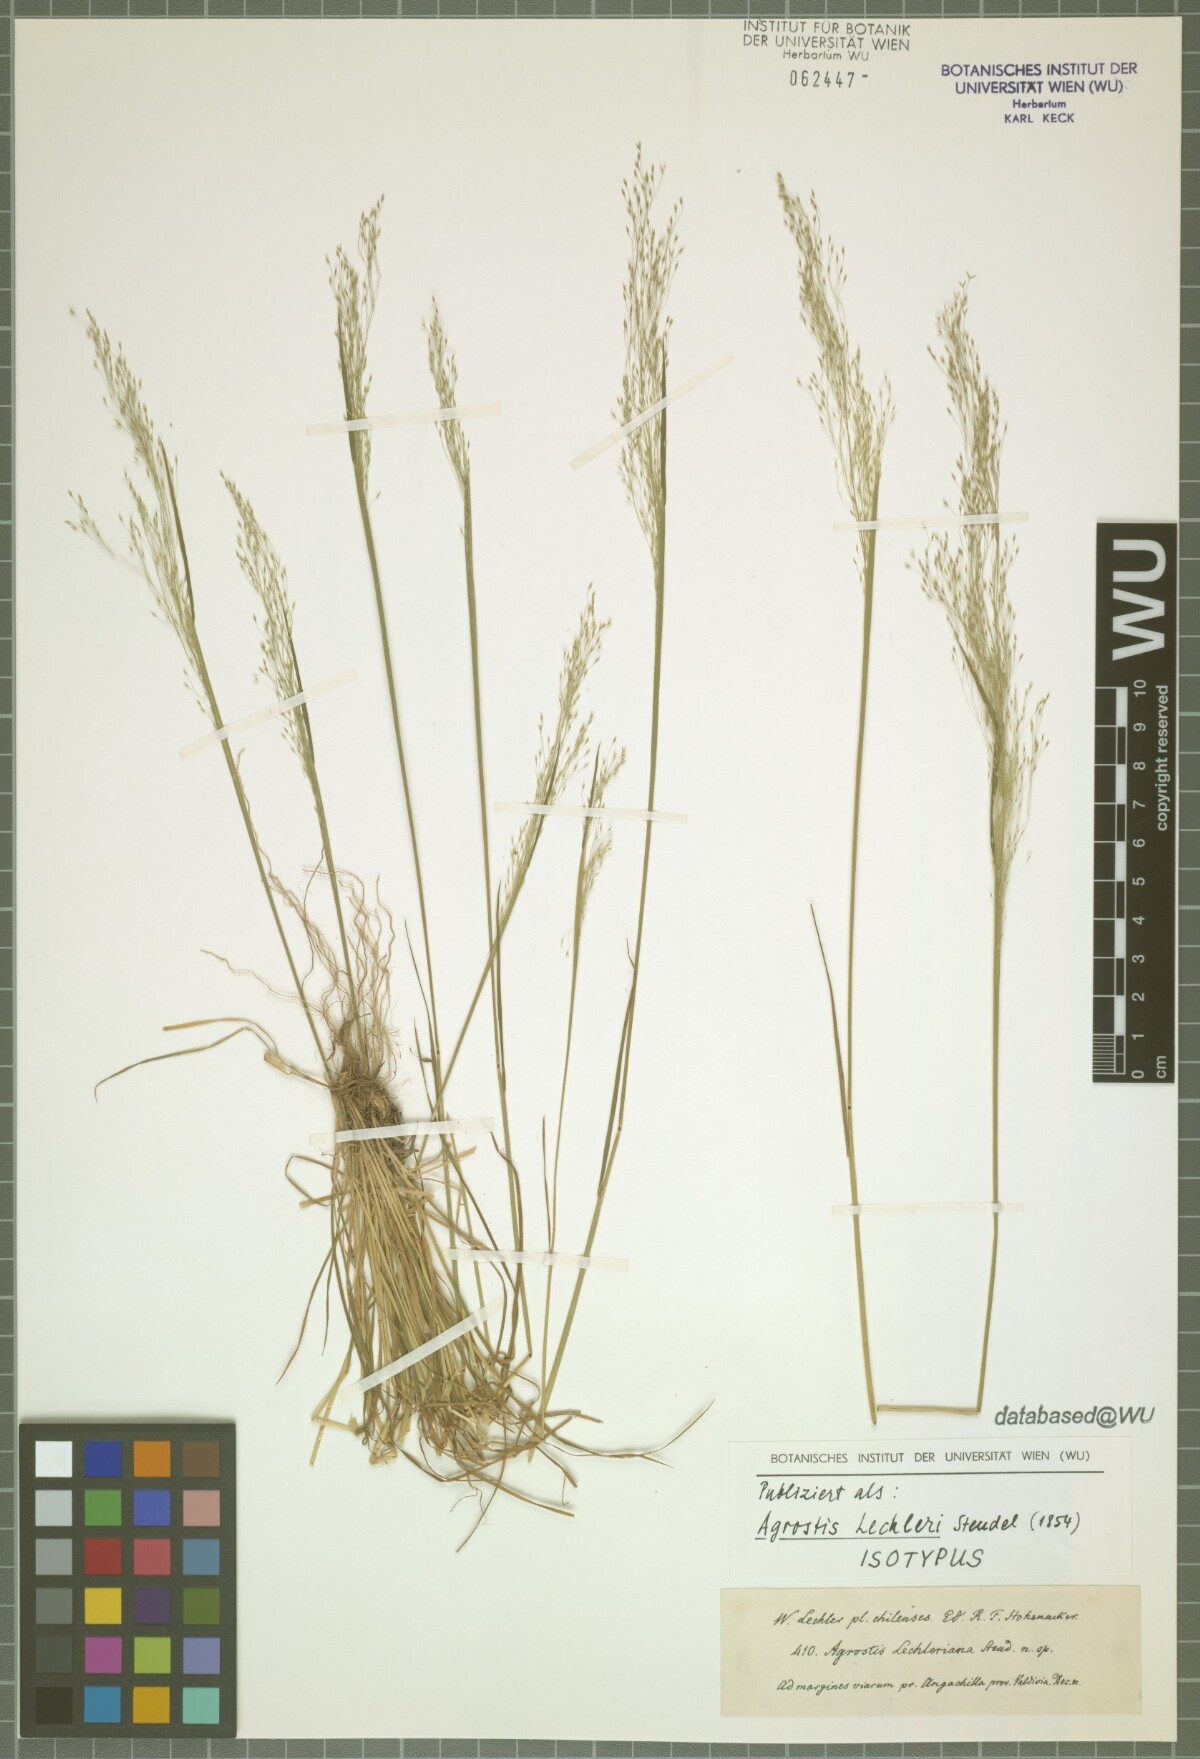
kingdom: Plantae
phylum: Tracheophyta
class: Liliopsida
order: Poales
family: Poaceae
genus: Agrostis
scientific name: Agrostis leptotricha
